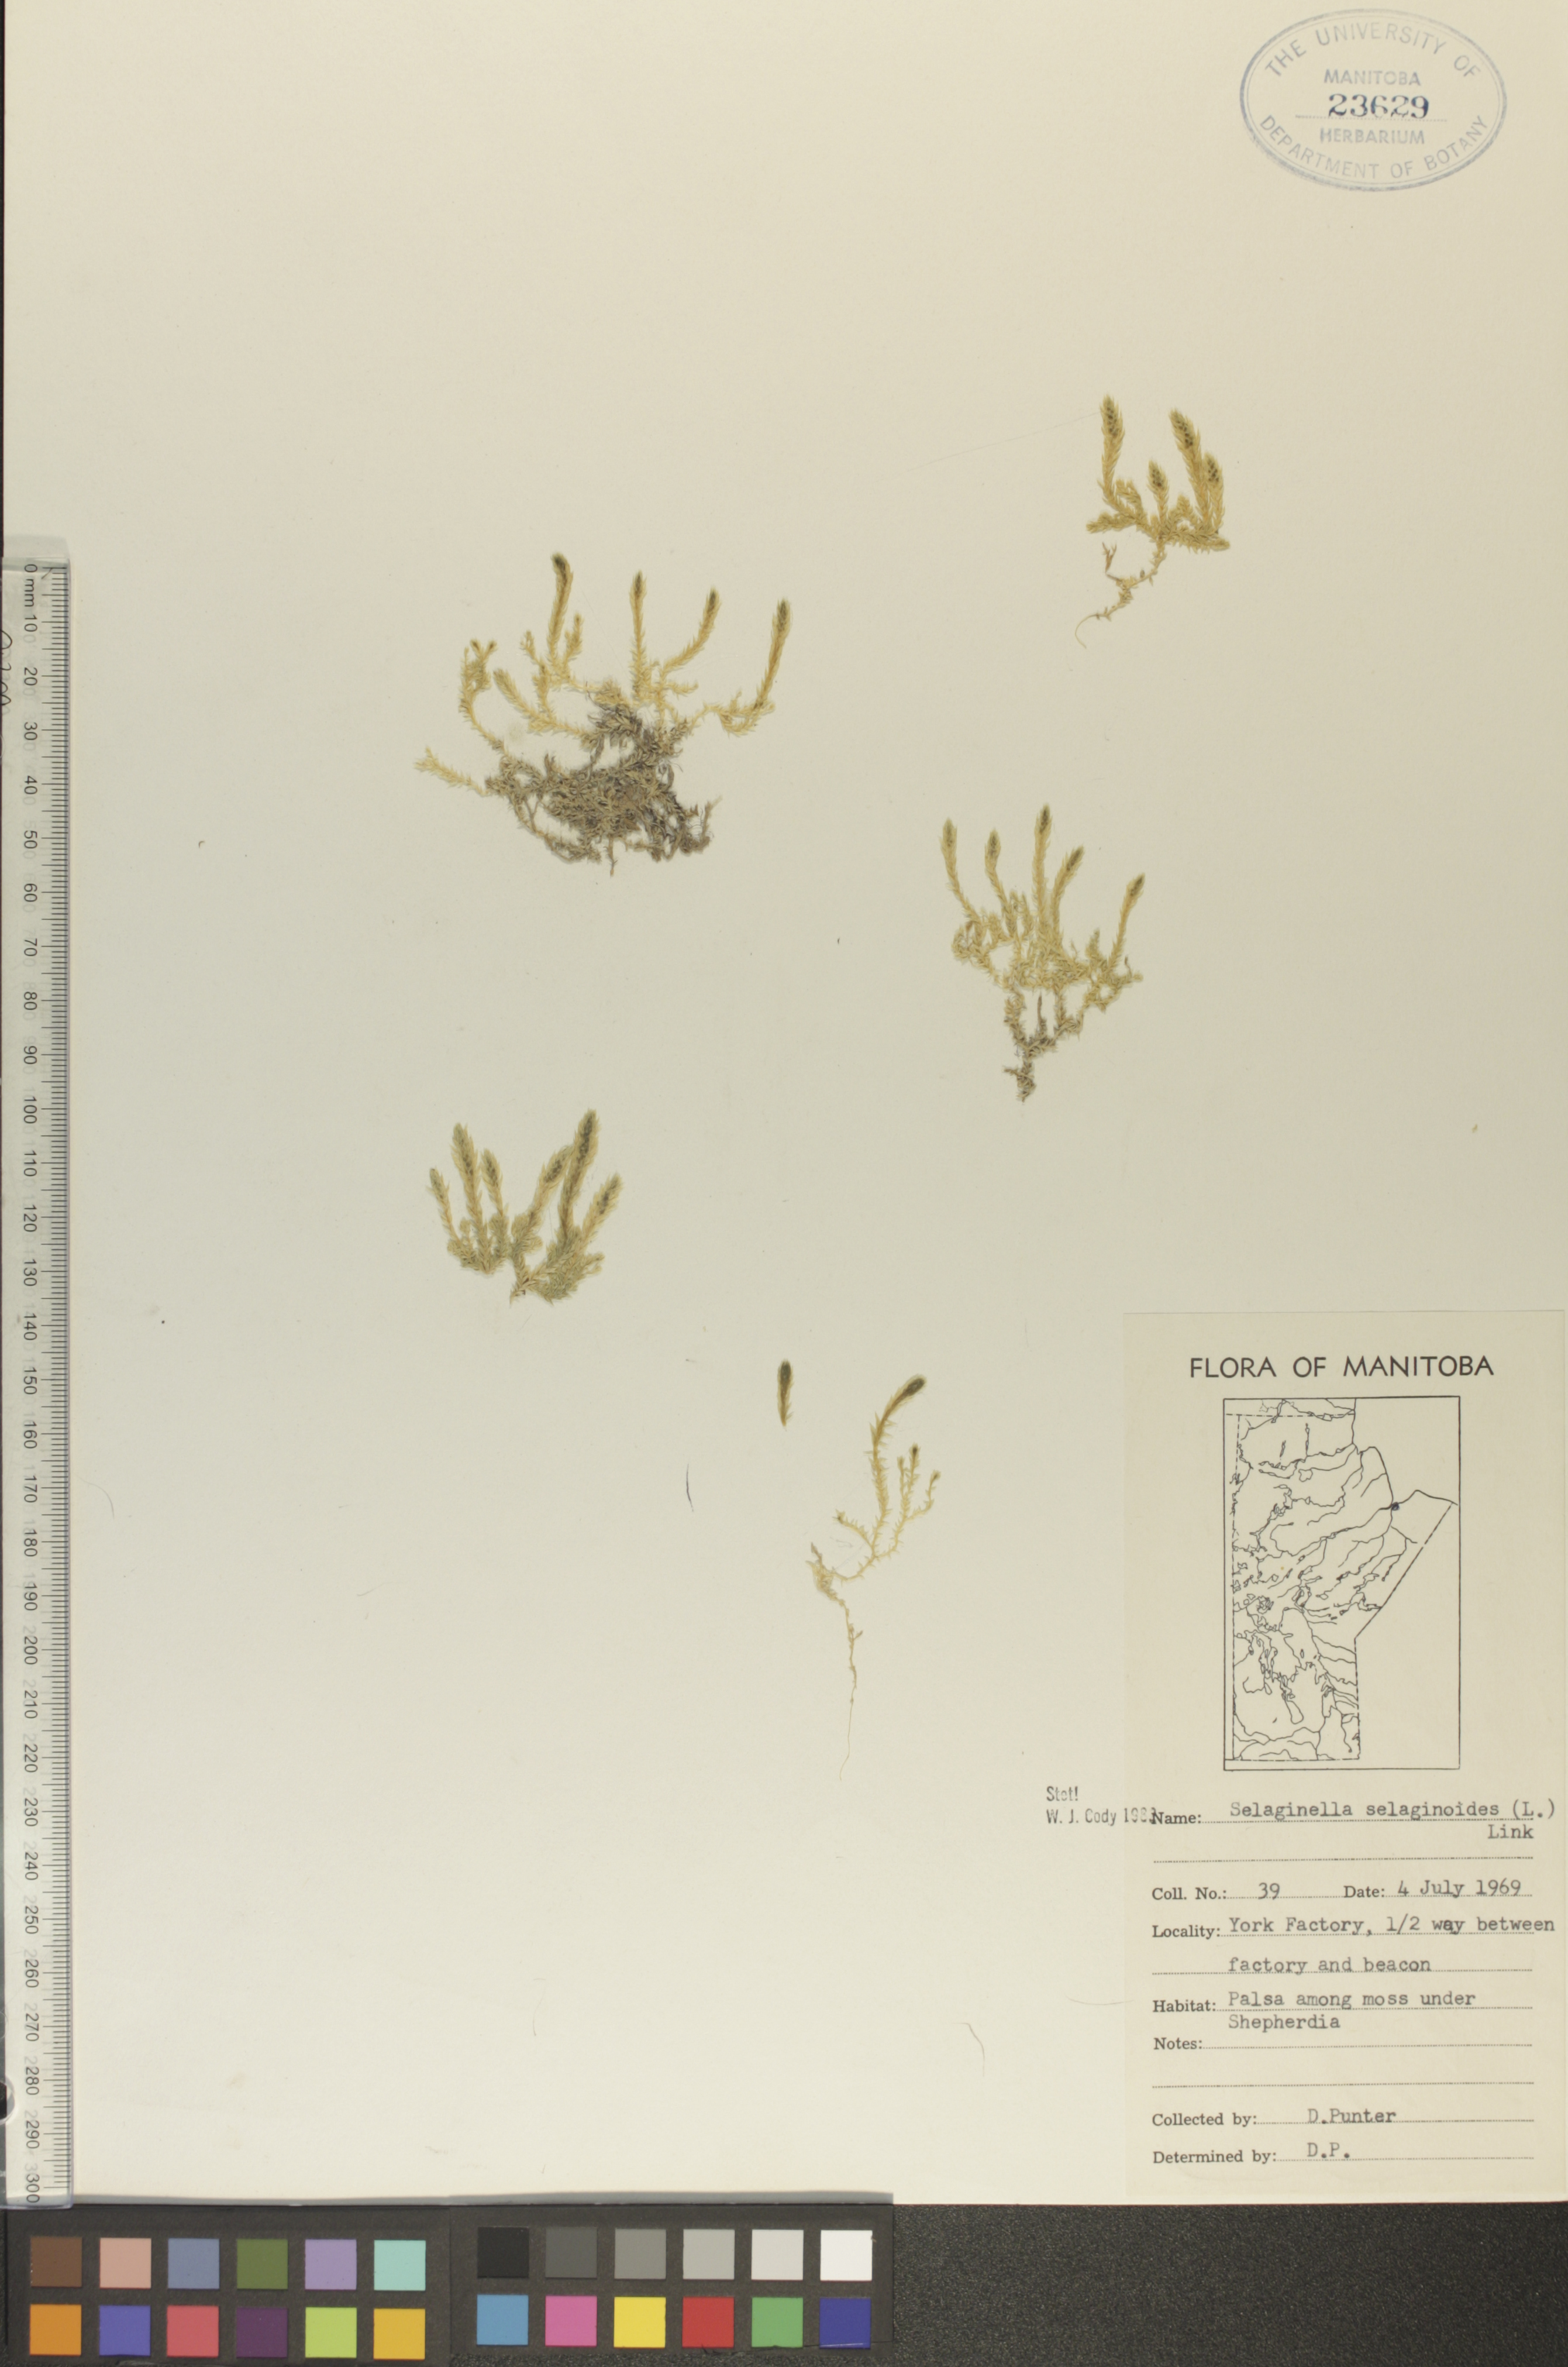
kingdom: Plantae
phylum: Tracheophyta
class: Lycopodiopsida
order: Selaginellales
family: Selaginellaceae
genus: Selaginella
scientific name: Selaginella selaginoides
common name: Prickly mountain-moss
